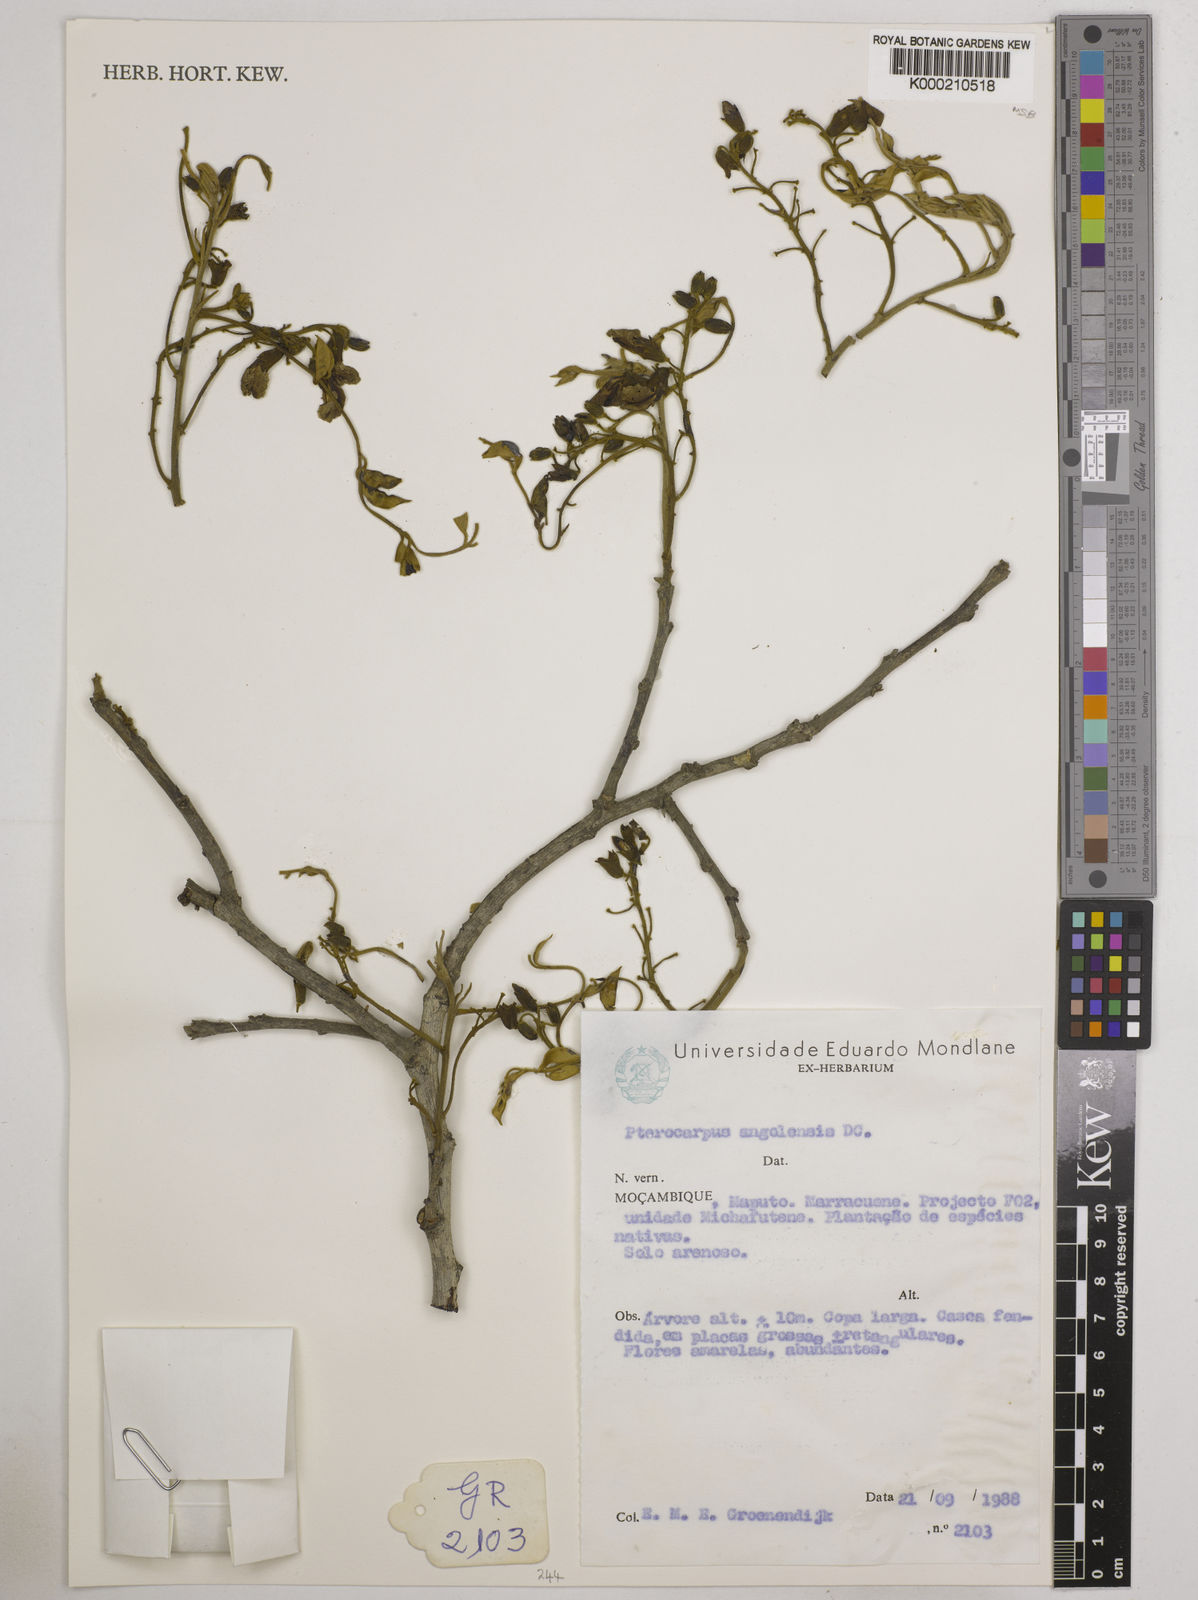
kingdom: Plantae
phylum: Tracheophyta
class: Magnoliopsida
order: Fabales
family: Fabaceae
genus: Pterocarpus
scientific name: Pterocarpus angolensis
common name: Bloodwood tree
